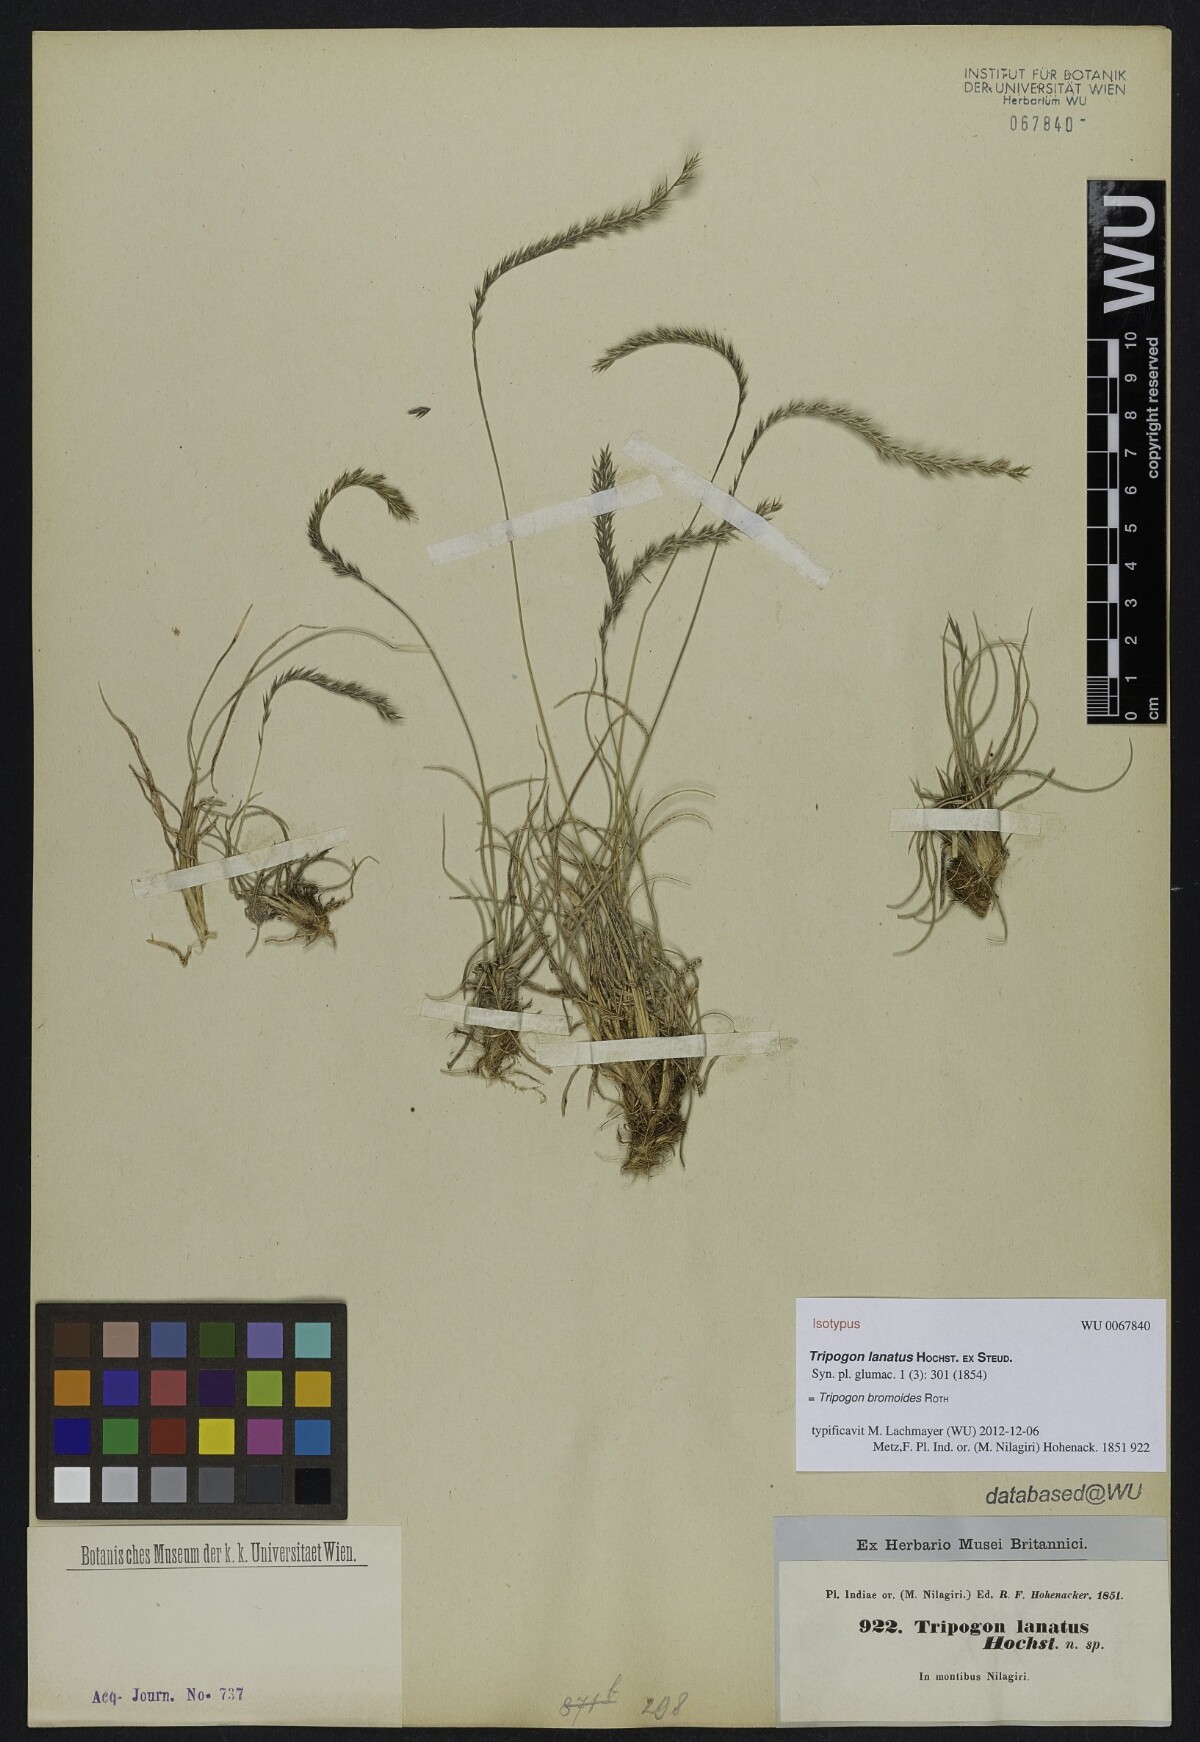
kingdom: Plantae
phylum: Tracheophyta
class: Liliopsida
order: Poales
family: Poaceae
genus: Tripogon
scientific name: Tripogon bromoides
